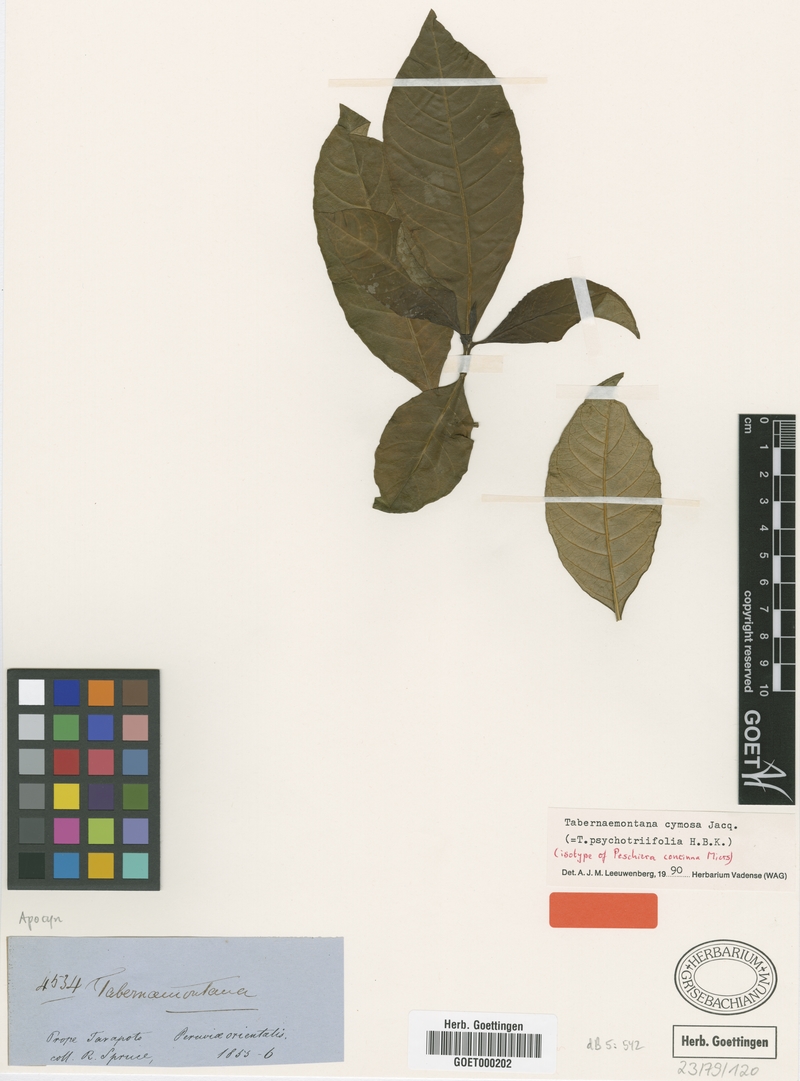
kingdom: Plantae
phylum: Tracheophyta
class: Magnoliopsida
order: Gentianales
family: Apocynaceae
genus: Tabernaemontana
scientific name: Tabernaemontana cymosa
